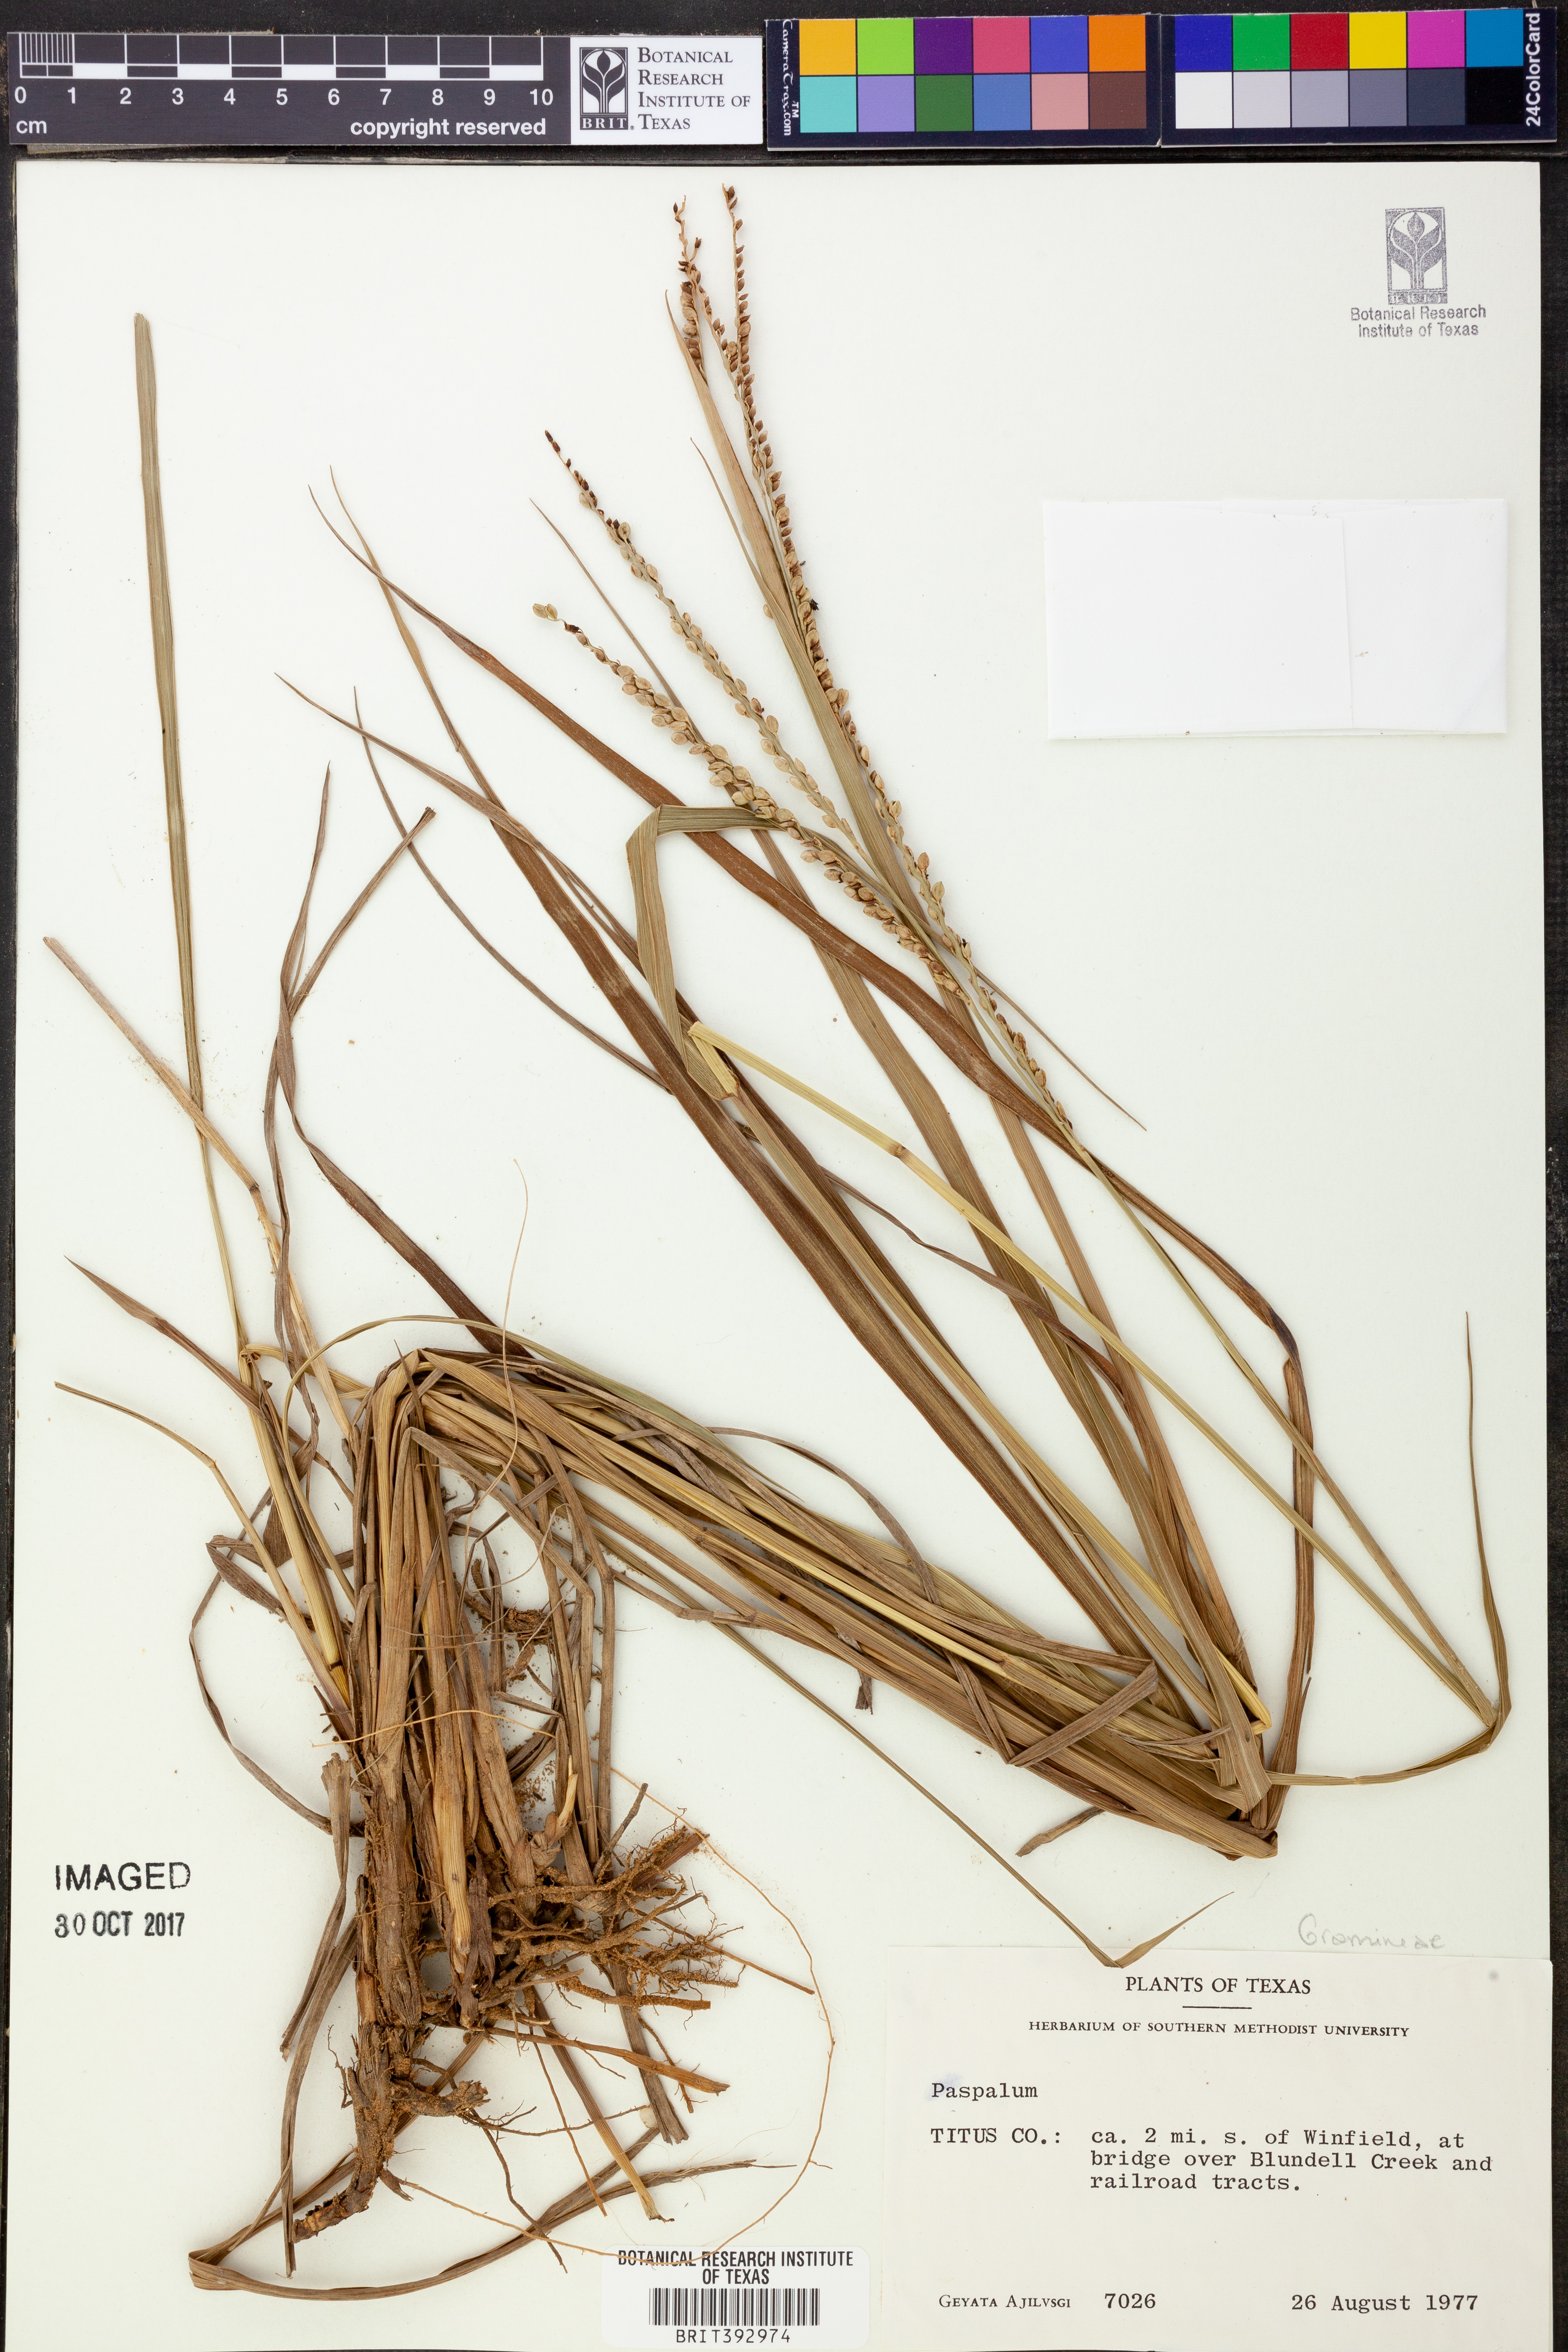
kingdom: Plantae
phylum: Tracheophyta
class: Liliopsida
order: Poales
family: Poaceae
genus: Paspalum
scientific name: Paspalum
